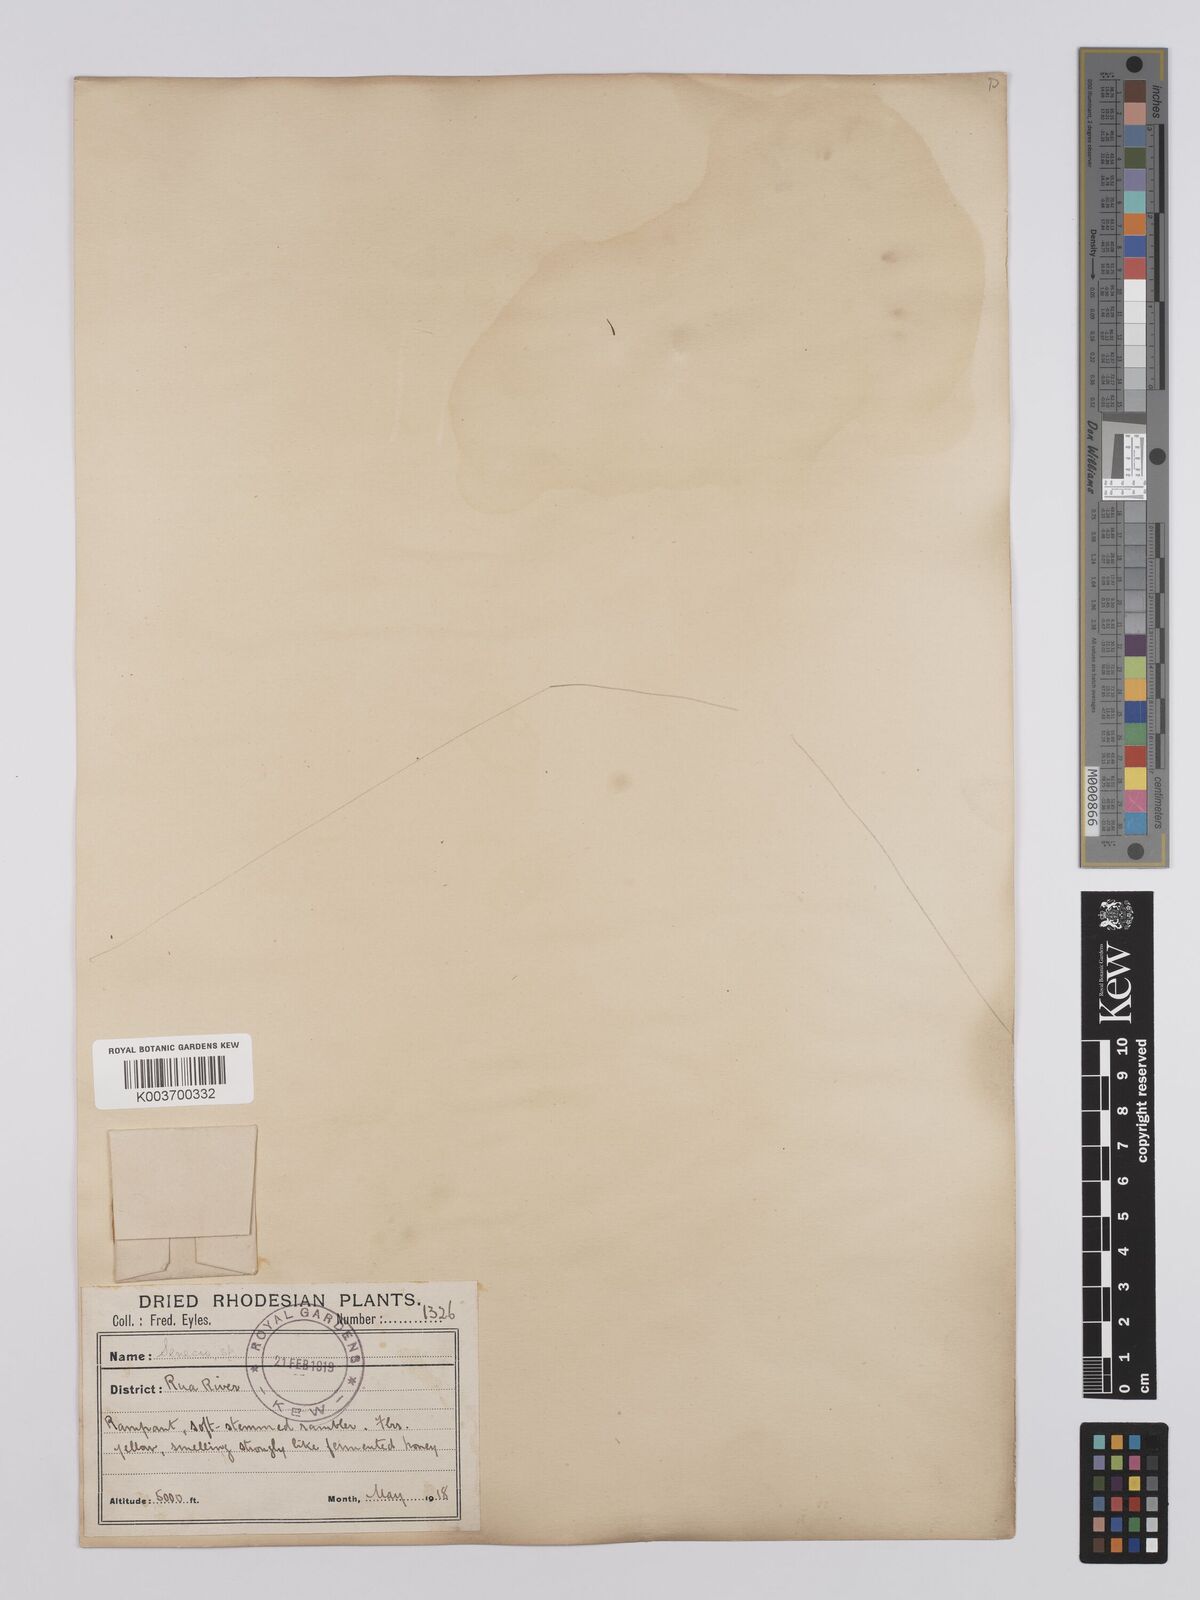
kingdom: Plantae
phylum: Tracheophyta
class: Magnoliopsida
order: Asterales
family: Asteraceae
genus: Senecio
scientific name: Senecio brachypodus
